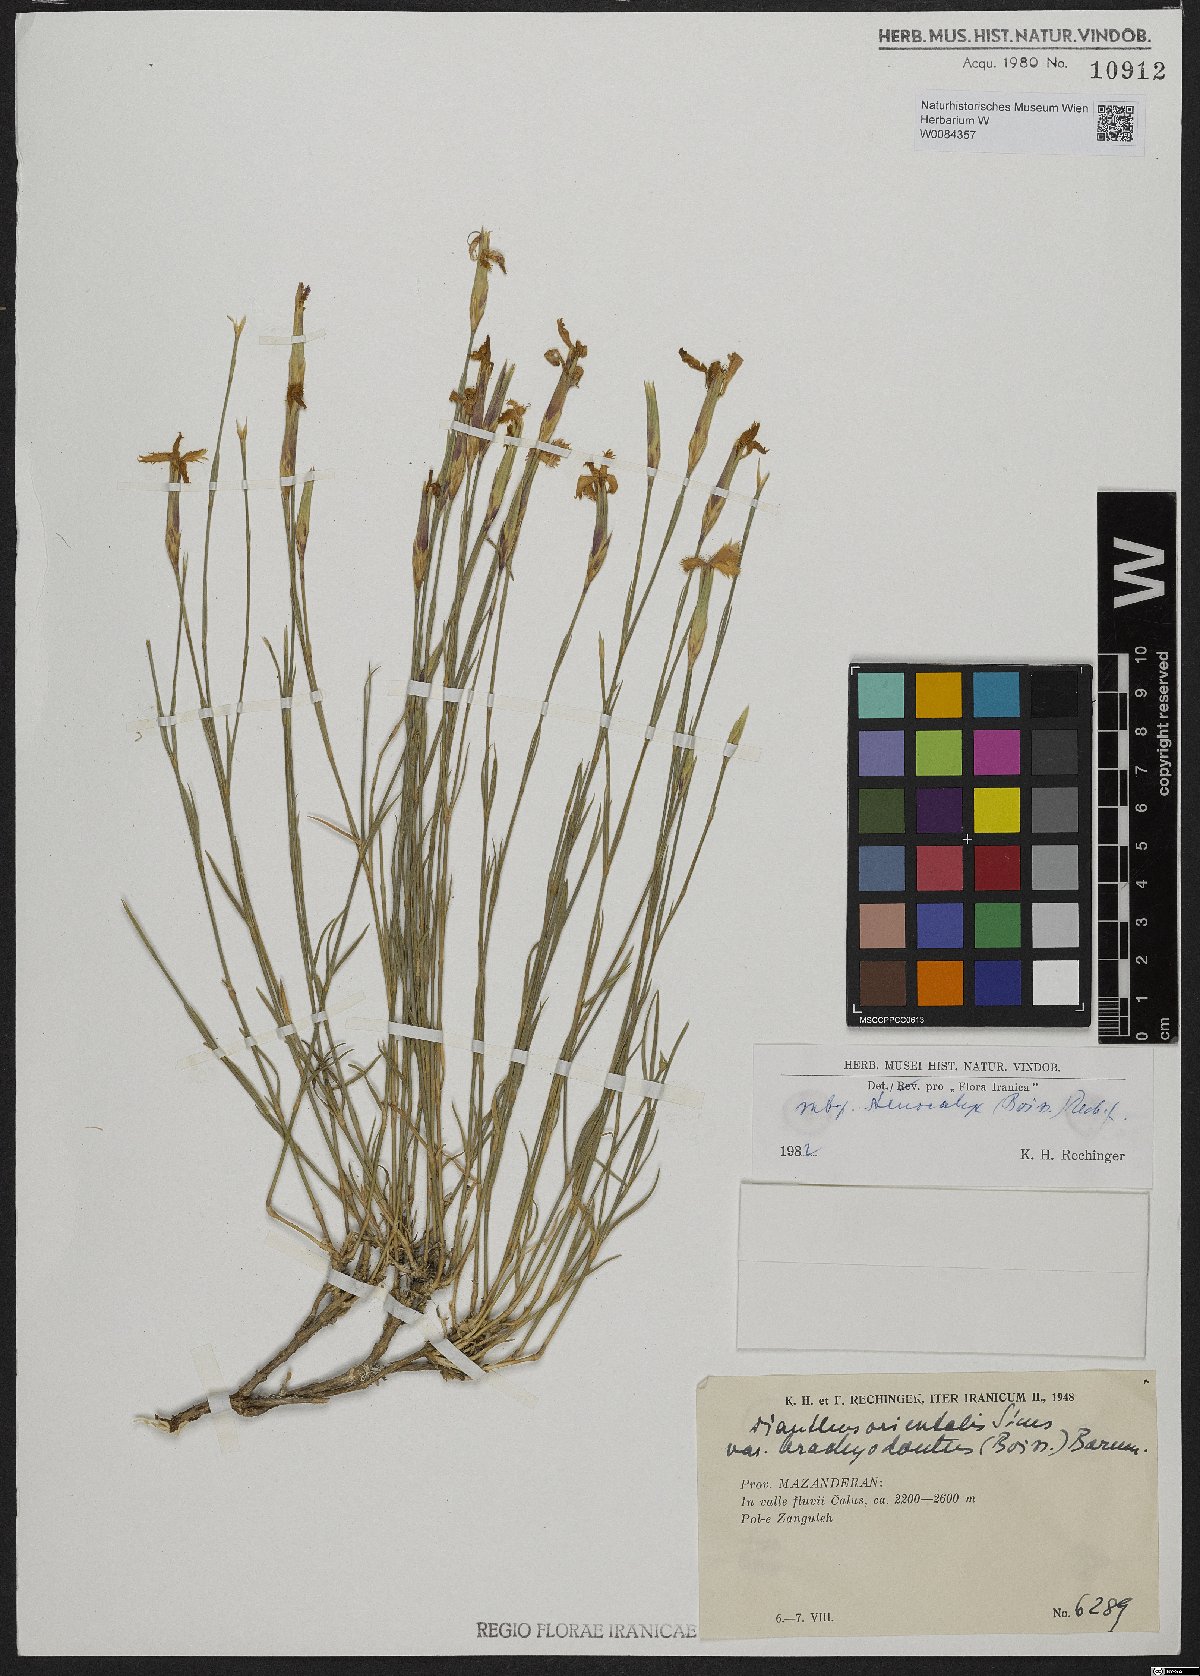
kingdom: Plantae
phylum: Tracheophyta
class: Magnoliopsida
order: Caryophyllales
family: Caryophyllaceae
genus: Dianthus
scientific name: Dianthus orientalis
